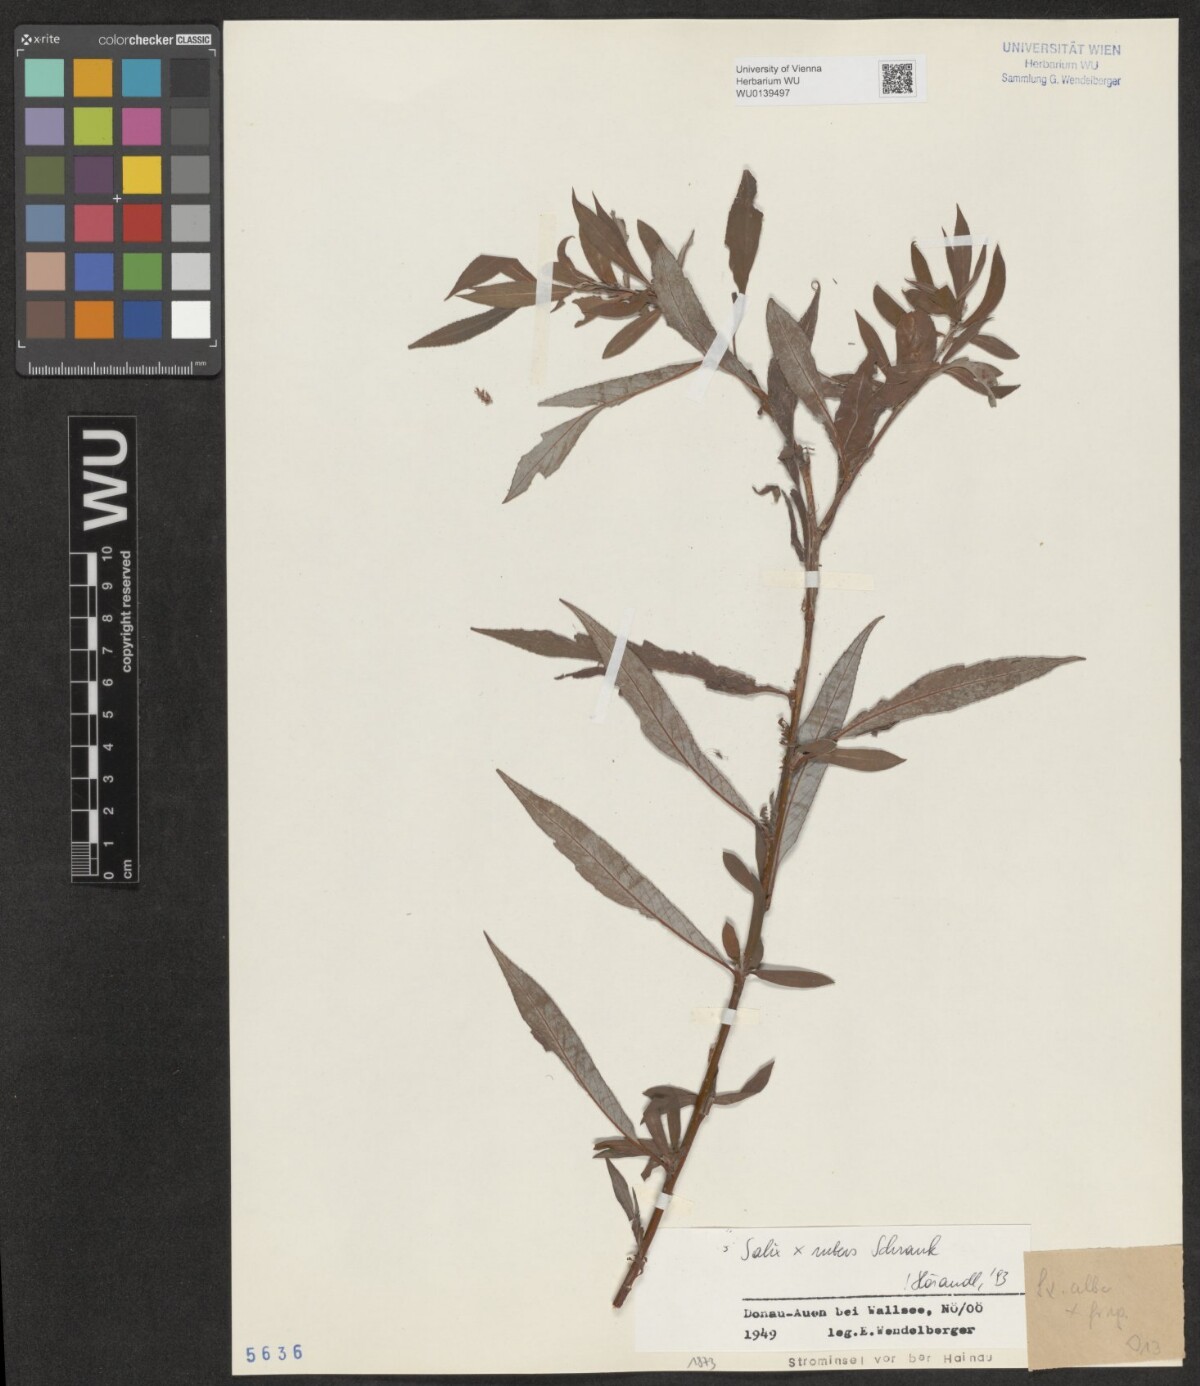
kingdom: Plantae
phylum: Tracheophyta
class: Magnoliopsida
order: Malpighiales
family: Salicaceae
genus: Salix
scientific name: Salix rubens
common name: Hybrid crack willow
